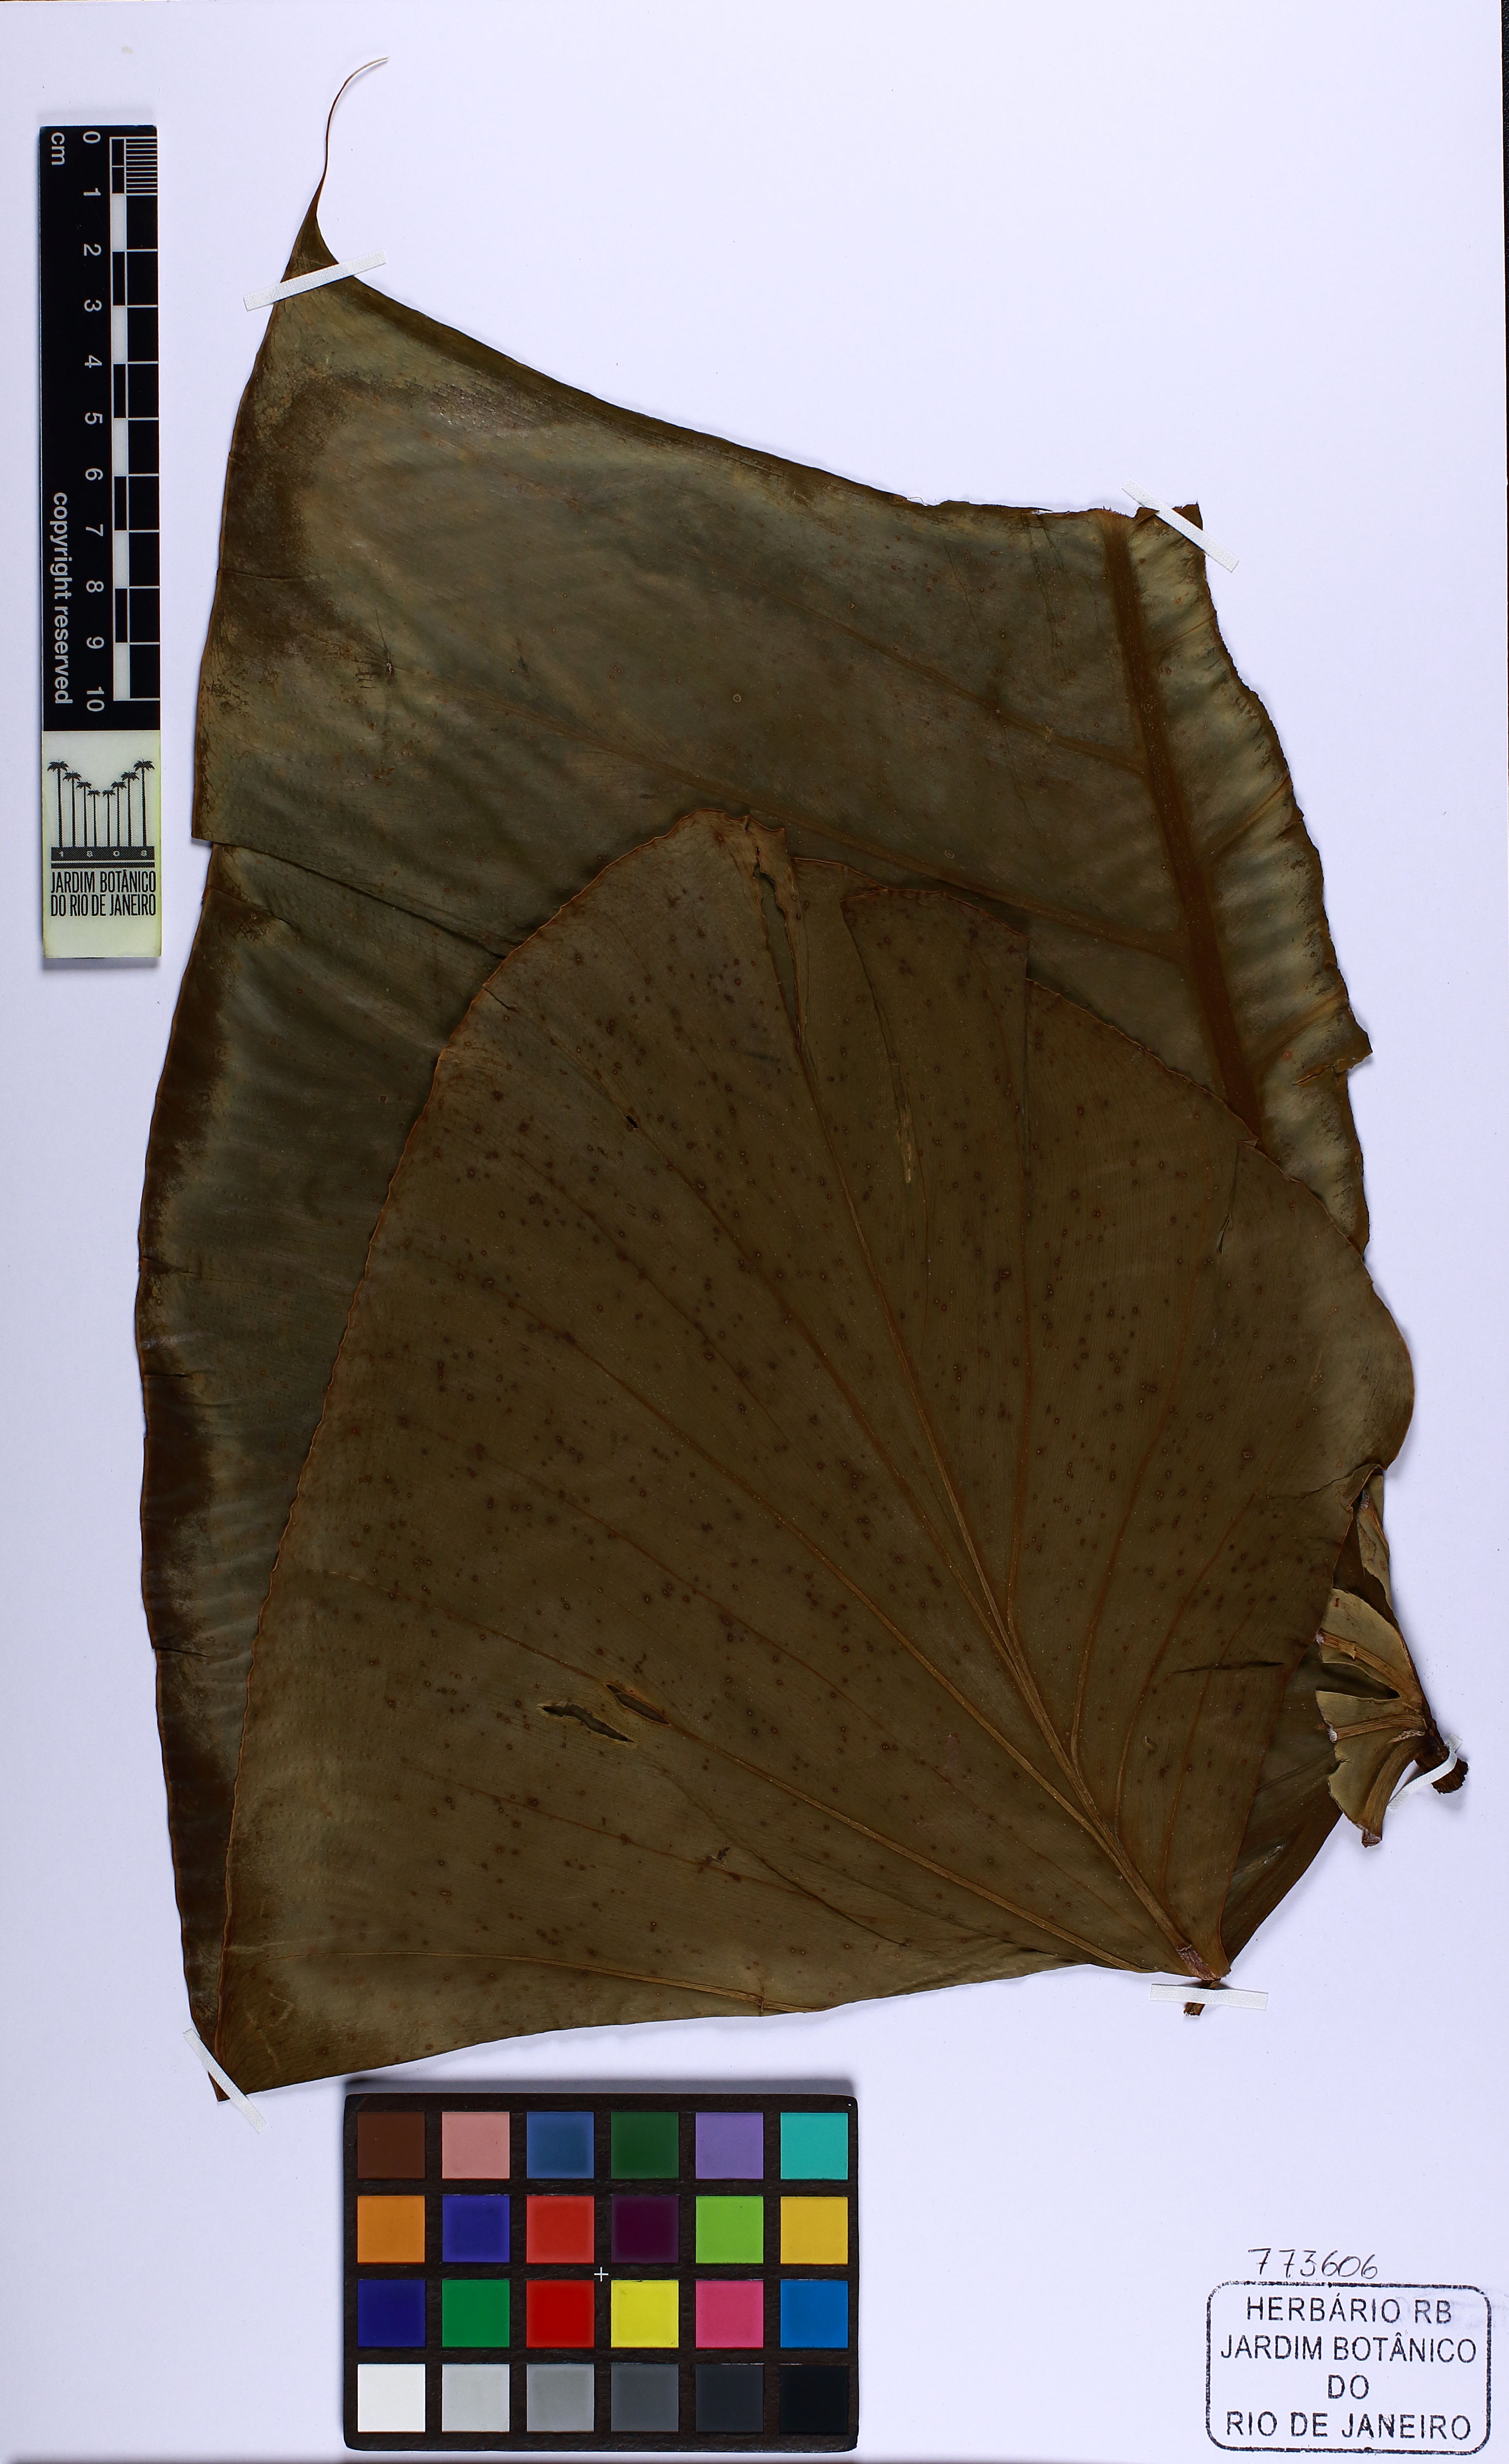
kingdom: Plantae
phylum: Tracheophyta
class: Liliopsida
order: Alismatales
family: Araceae
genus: Philodendron
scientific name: Philodendron quinquenervium
